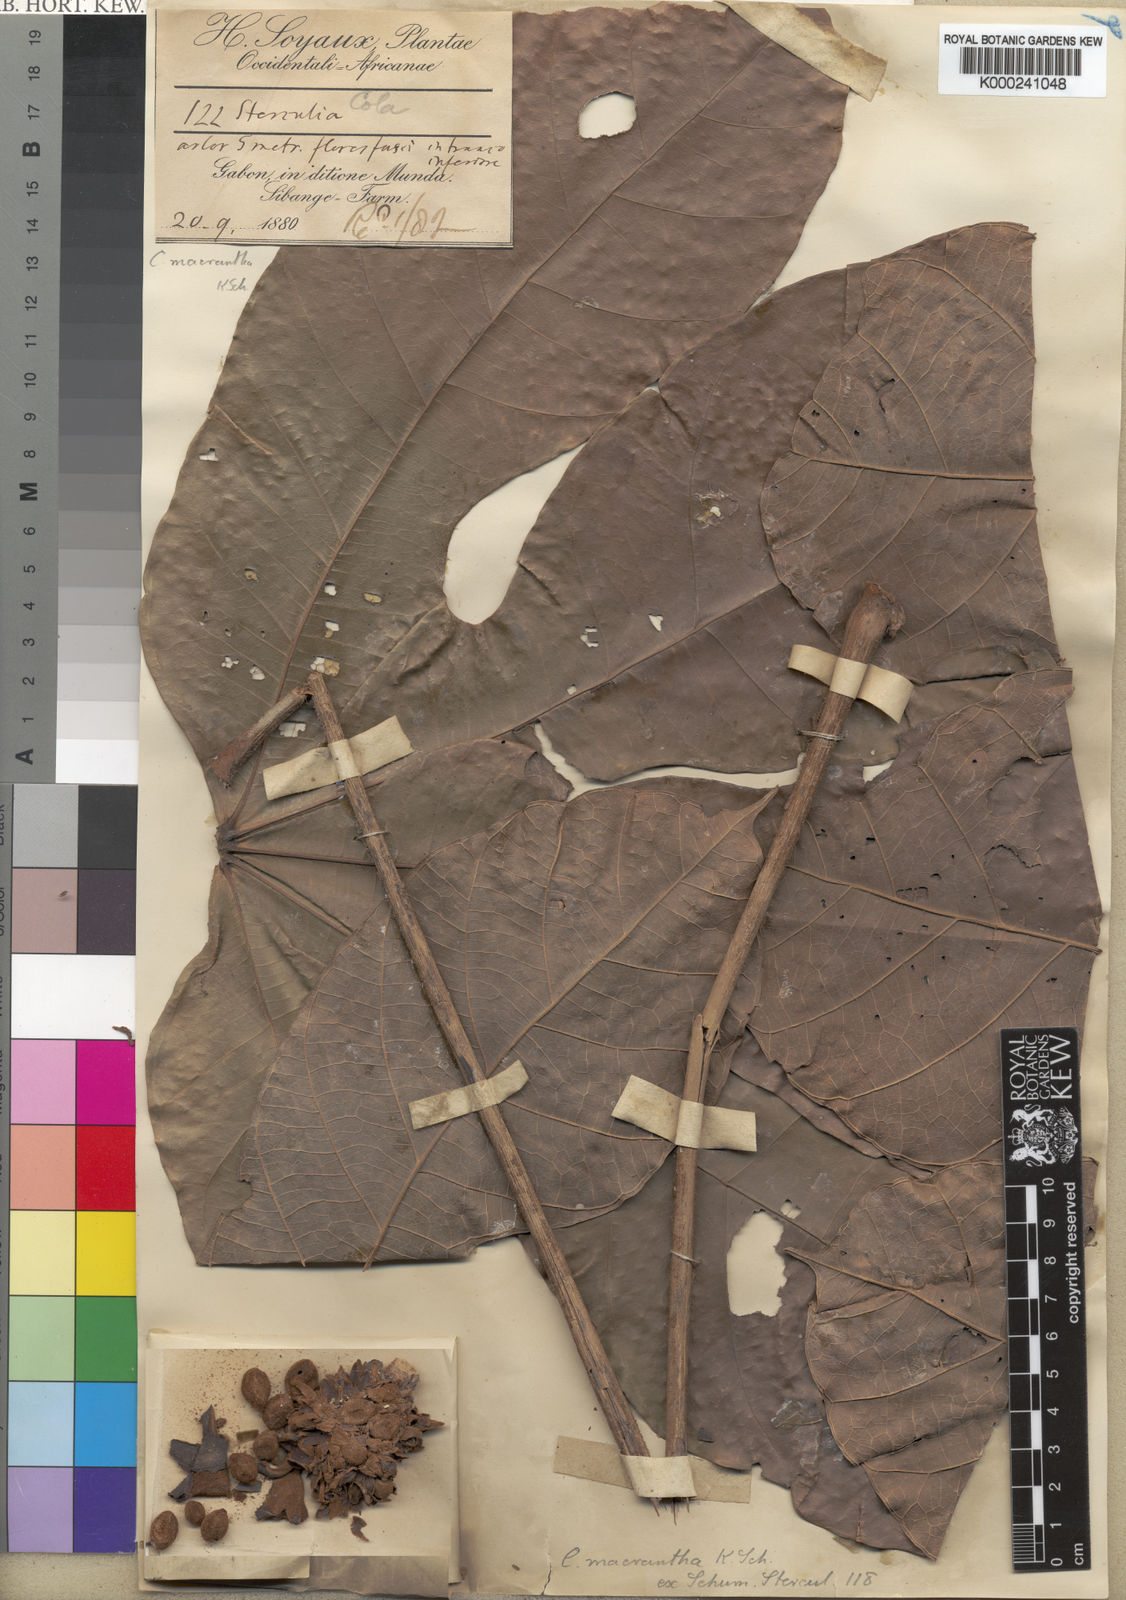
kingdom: Plantae
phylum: Tracheophyta
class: Magnoliopsida
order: Malvales
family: Malvaceae
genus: Cola
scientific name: Cola macrantha
